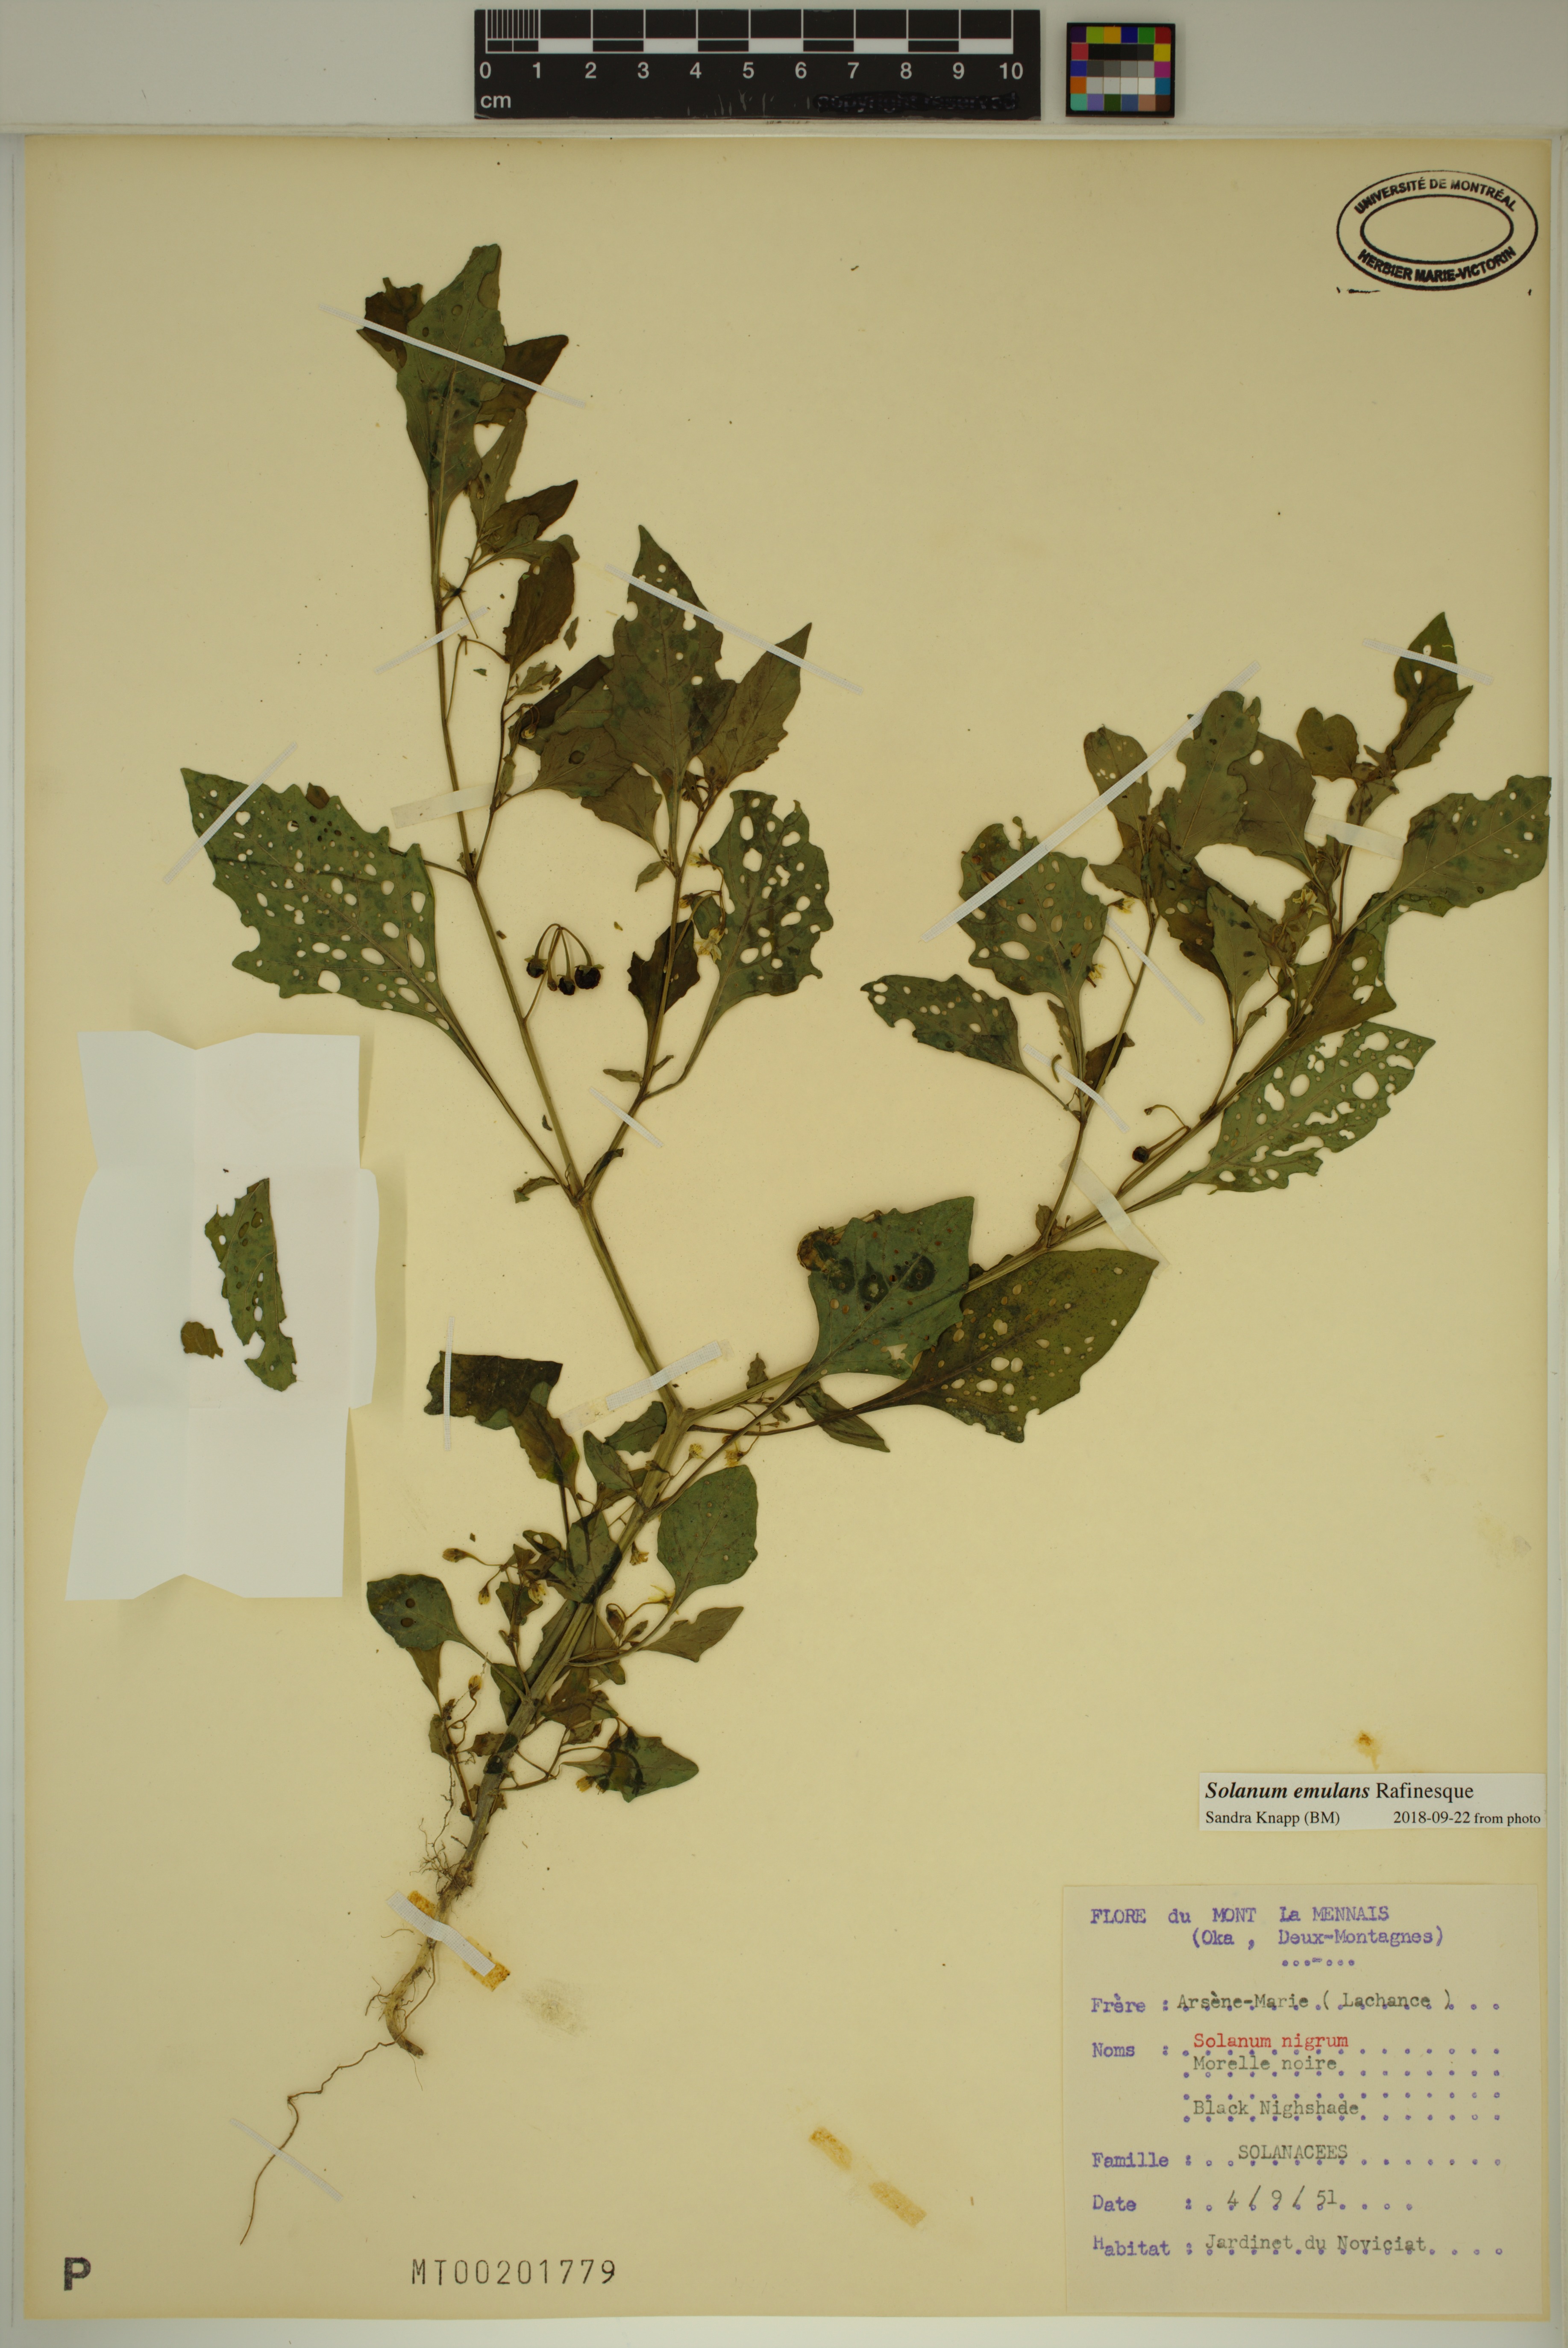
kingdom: Plantae
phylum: Tracheophyta
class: Magnoliopsida
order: Solanales
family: Solanaceae
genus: Solanum
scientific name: Solanum emulans
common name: Eastern black nightshade
